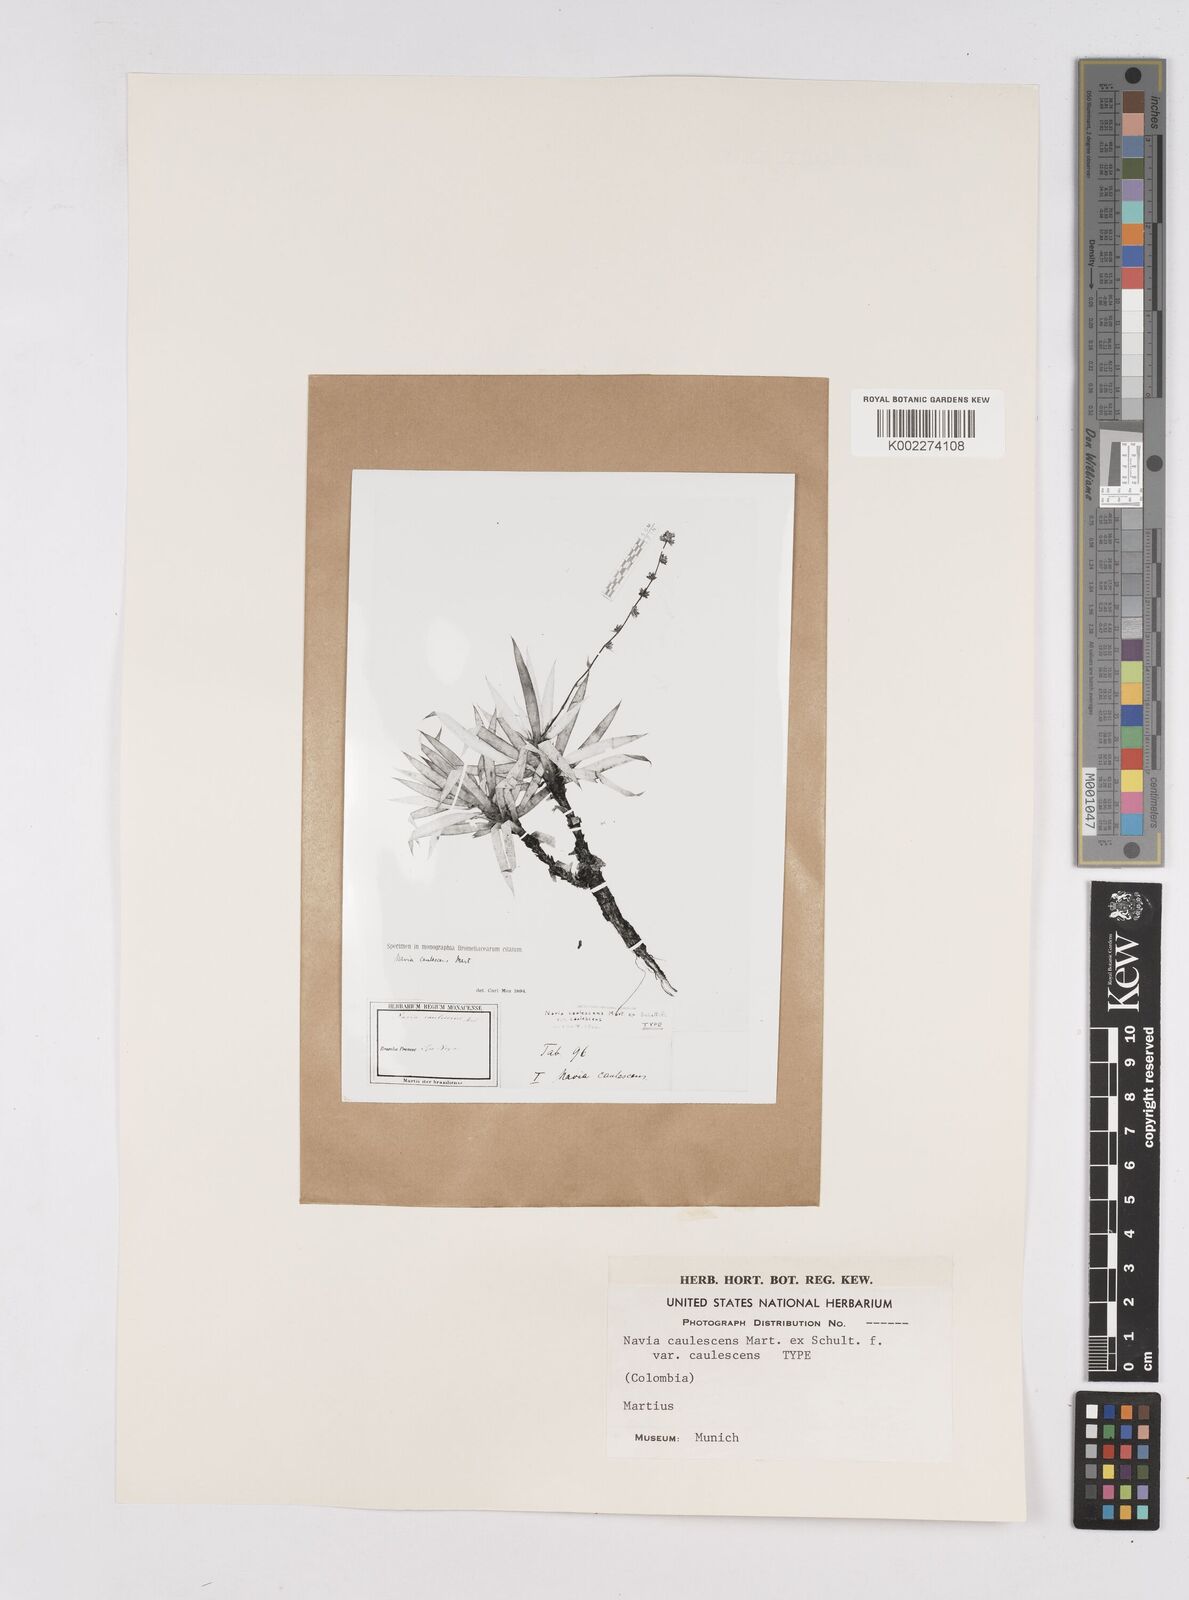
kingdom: Plantae
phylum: Tracheophyta
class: Liliopsida
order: Poales
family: Bromeliaceae
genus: Navia
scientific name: Navia caulescens
